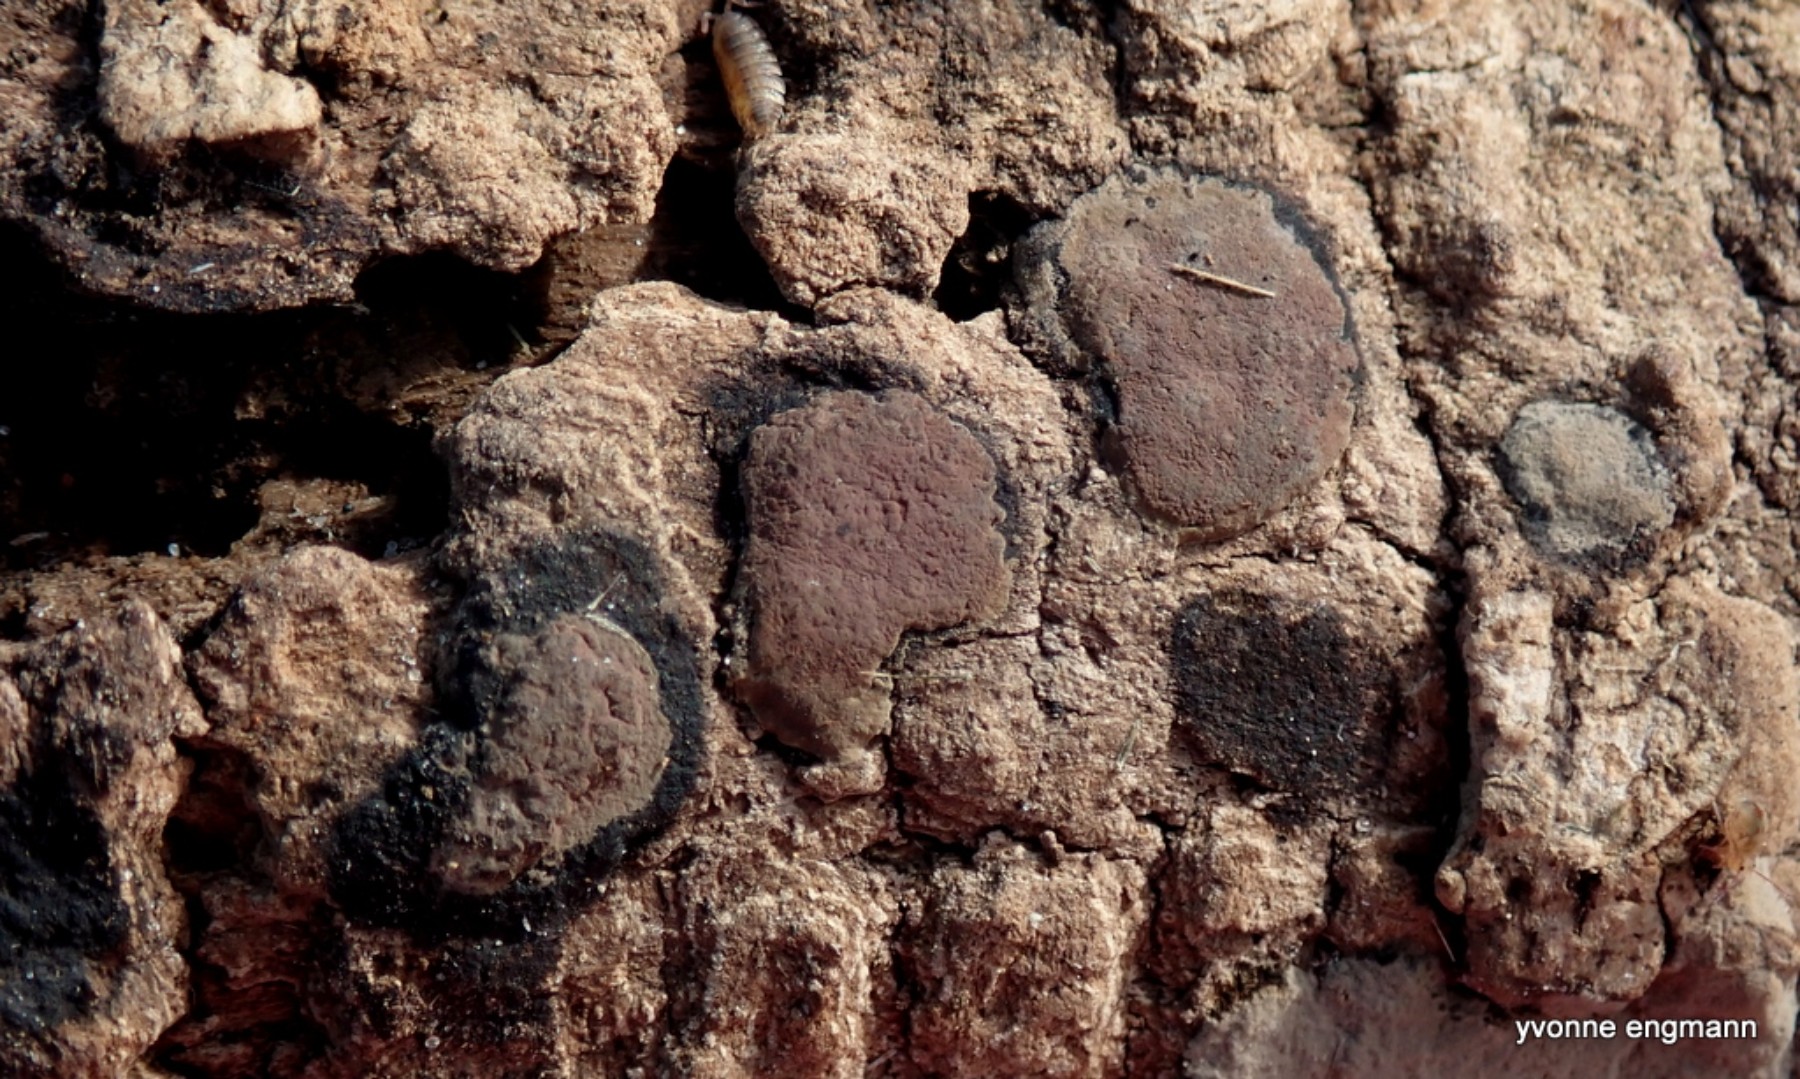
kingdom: Fungi
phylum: Ascomycota
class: Sordariomycetes
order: Xylariales
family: Hypoxylaceae
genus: Hypoxylon
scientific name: Hypoxylon petriniae
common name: nedsænket kulbær
